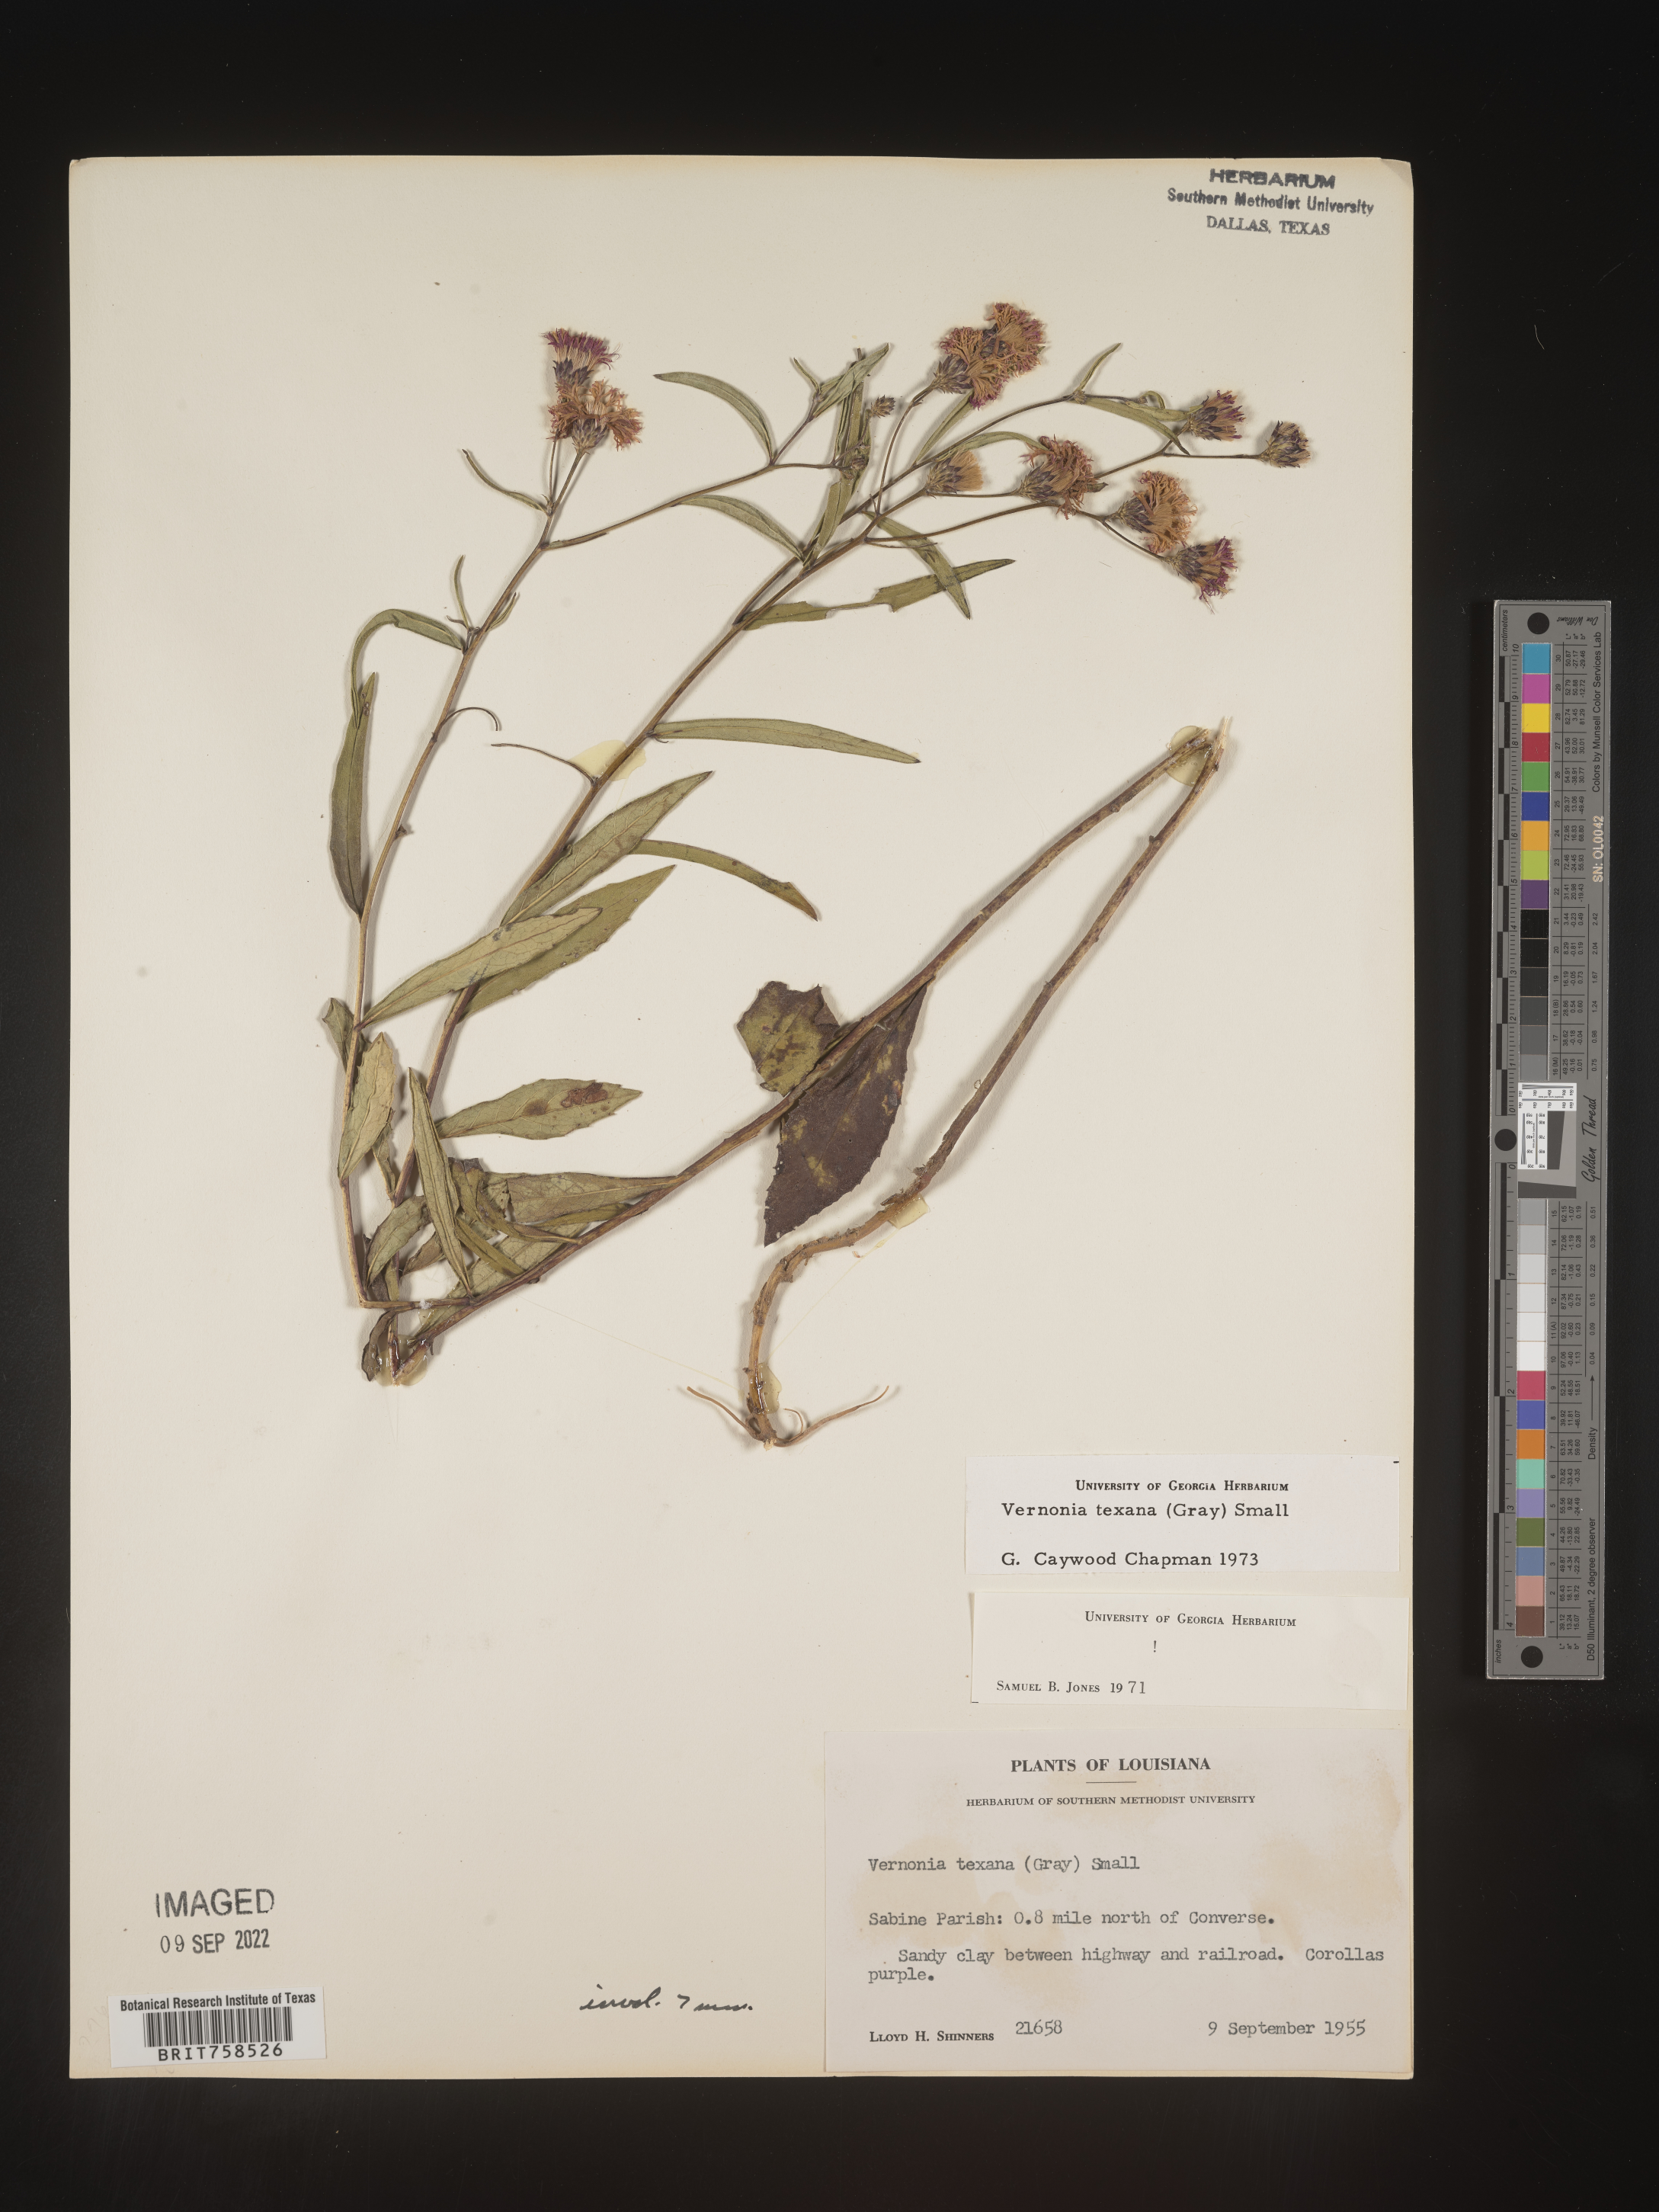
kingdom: Plantae
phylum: Tracheophyta
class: Magnoliopsida
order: Asterales
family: Asteraceae
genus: Vernonia
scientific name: Vernonia texana
